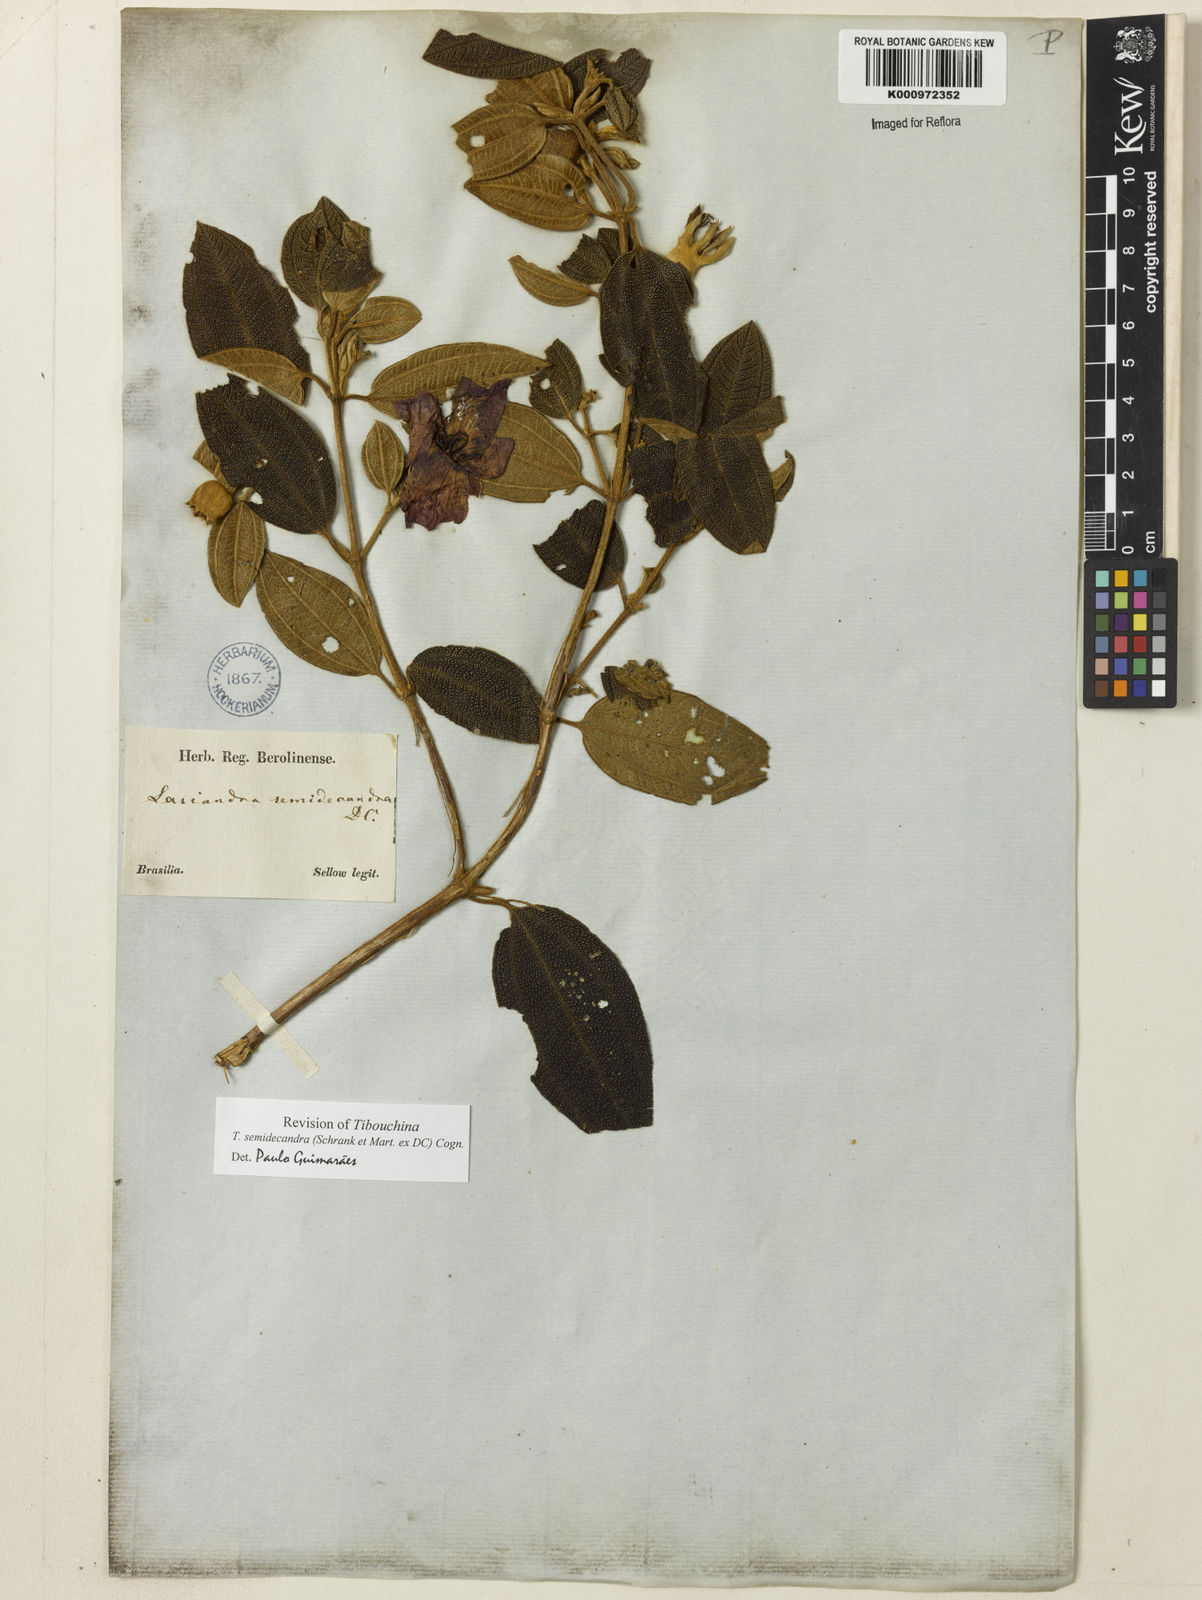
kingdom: Plantae
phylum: Tracheophyta
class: Magnoliopsida
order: Myrtales
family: Melastomataceae
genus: Pleroma
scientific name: Pleroma semidecandrum
